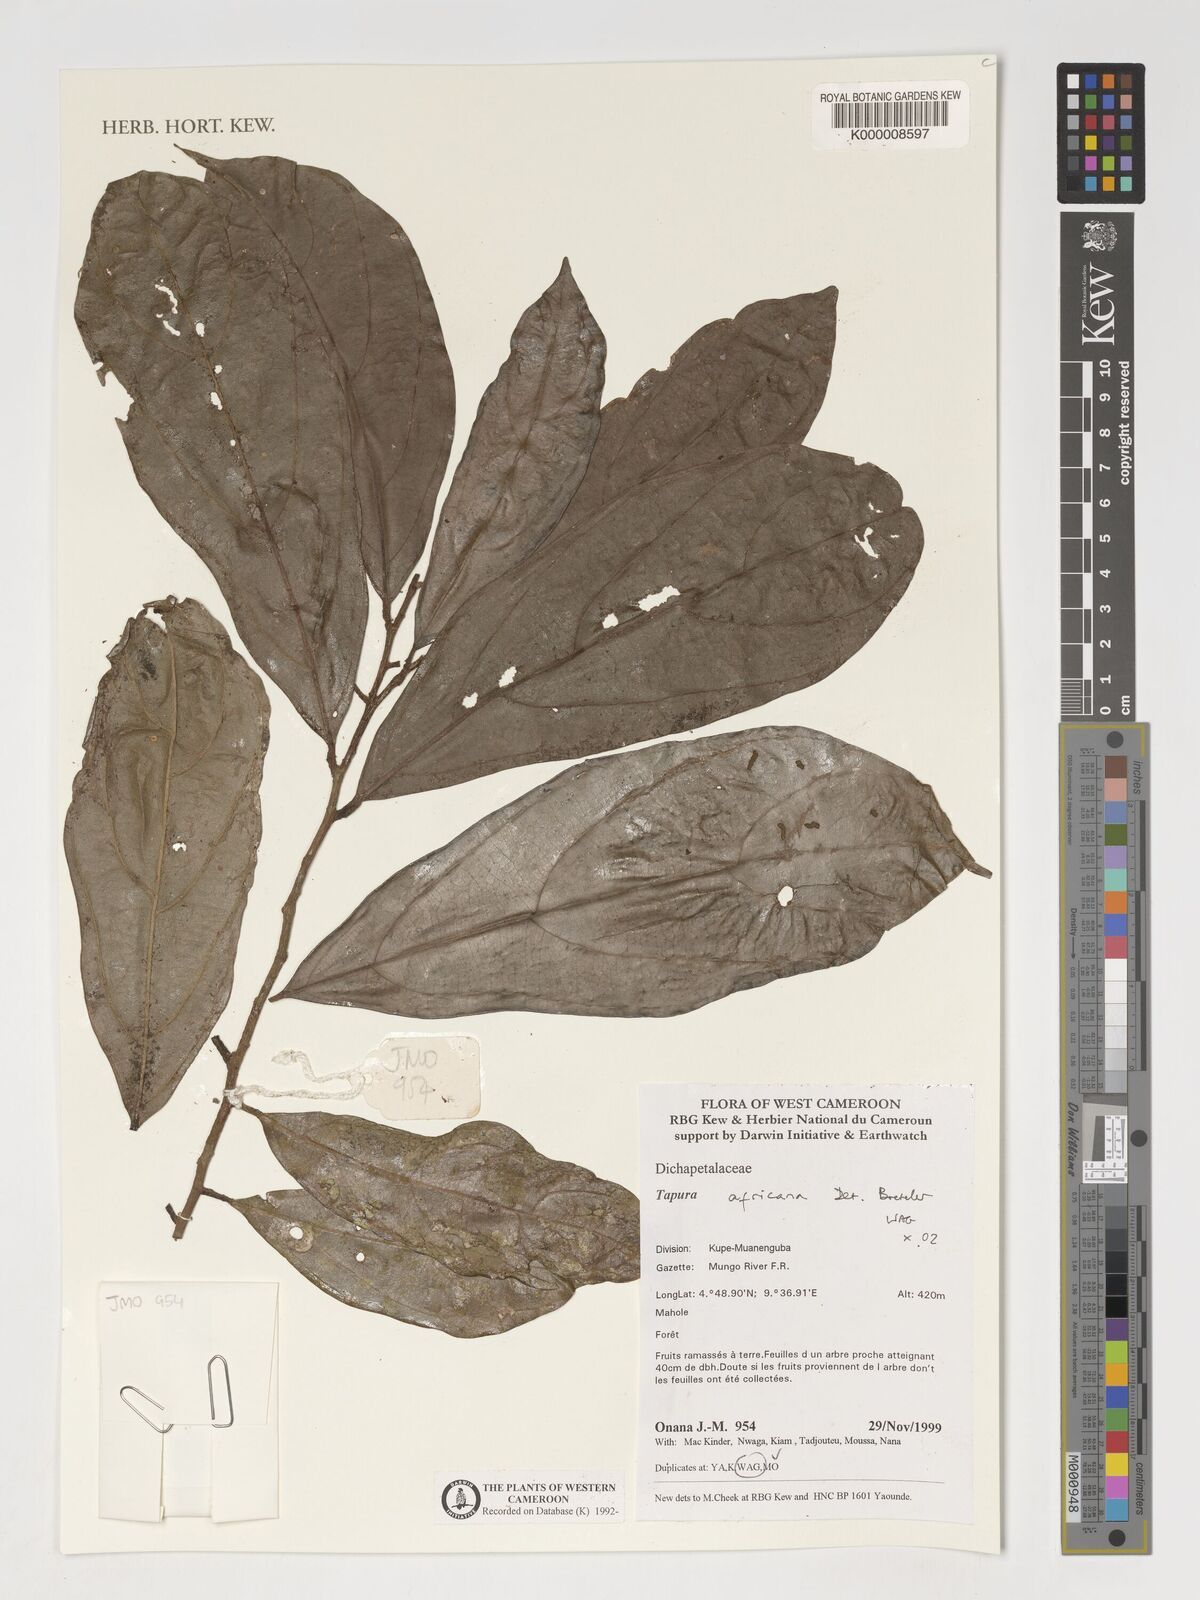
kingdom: Plantae
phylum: Tracheophyta
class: Magnoliopsida
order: Malpighiales
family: Dichapetalaceae
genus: Tapura
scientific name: Tapura africana
